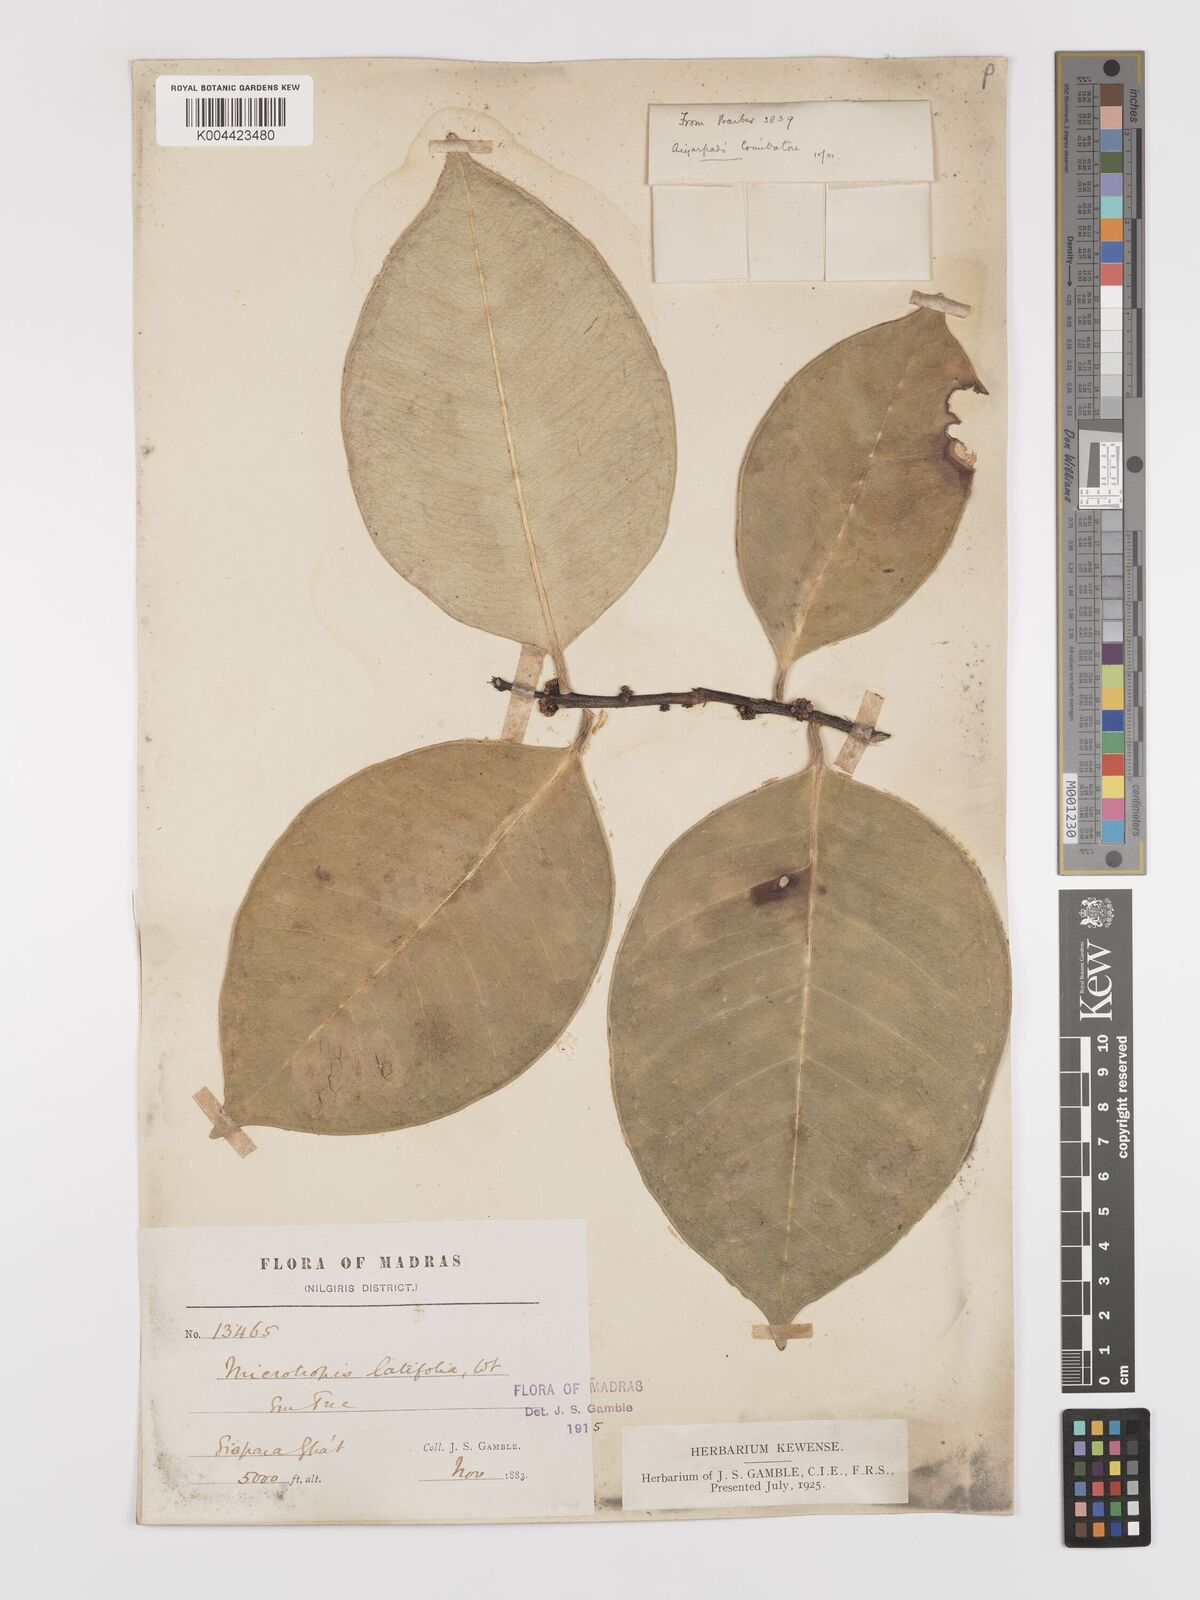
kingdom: Plantae
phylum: Tracheophyta
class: Magnoliopsida
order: Celastrales
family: Celastraceae
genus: Microtropis
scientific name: Microtropis latifolia
